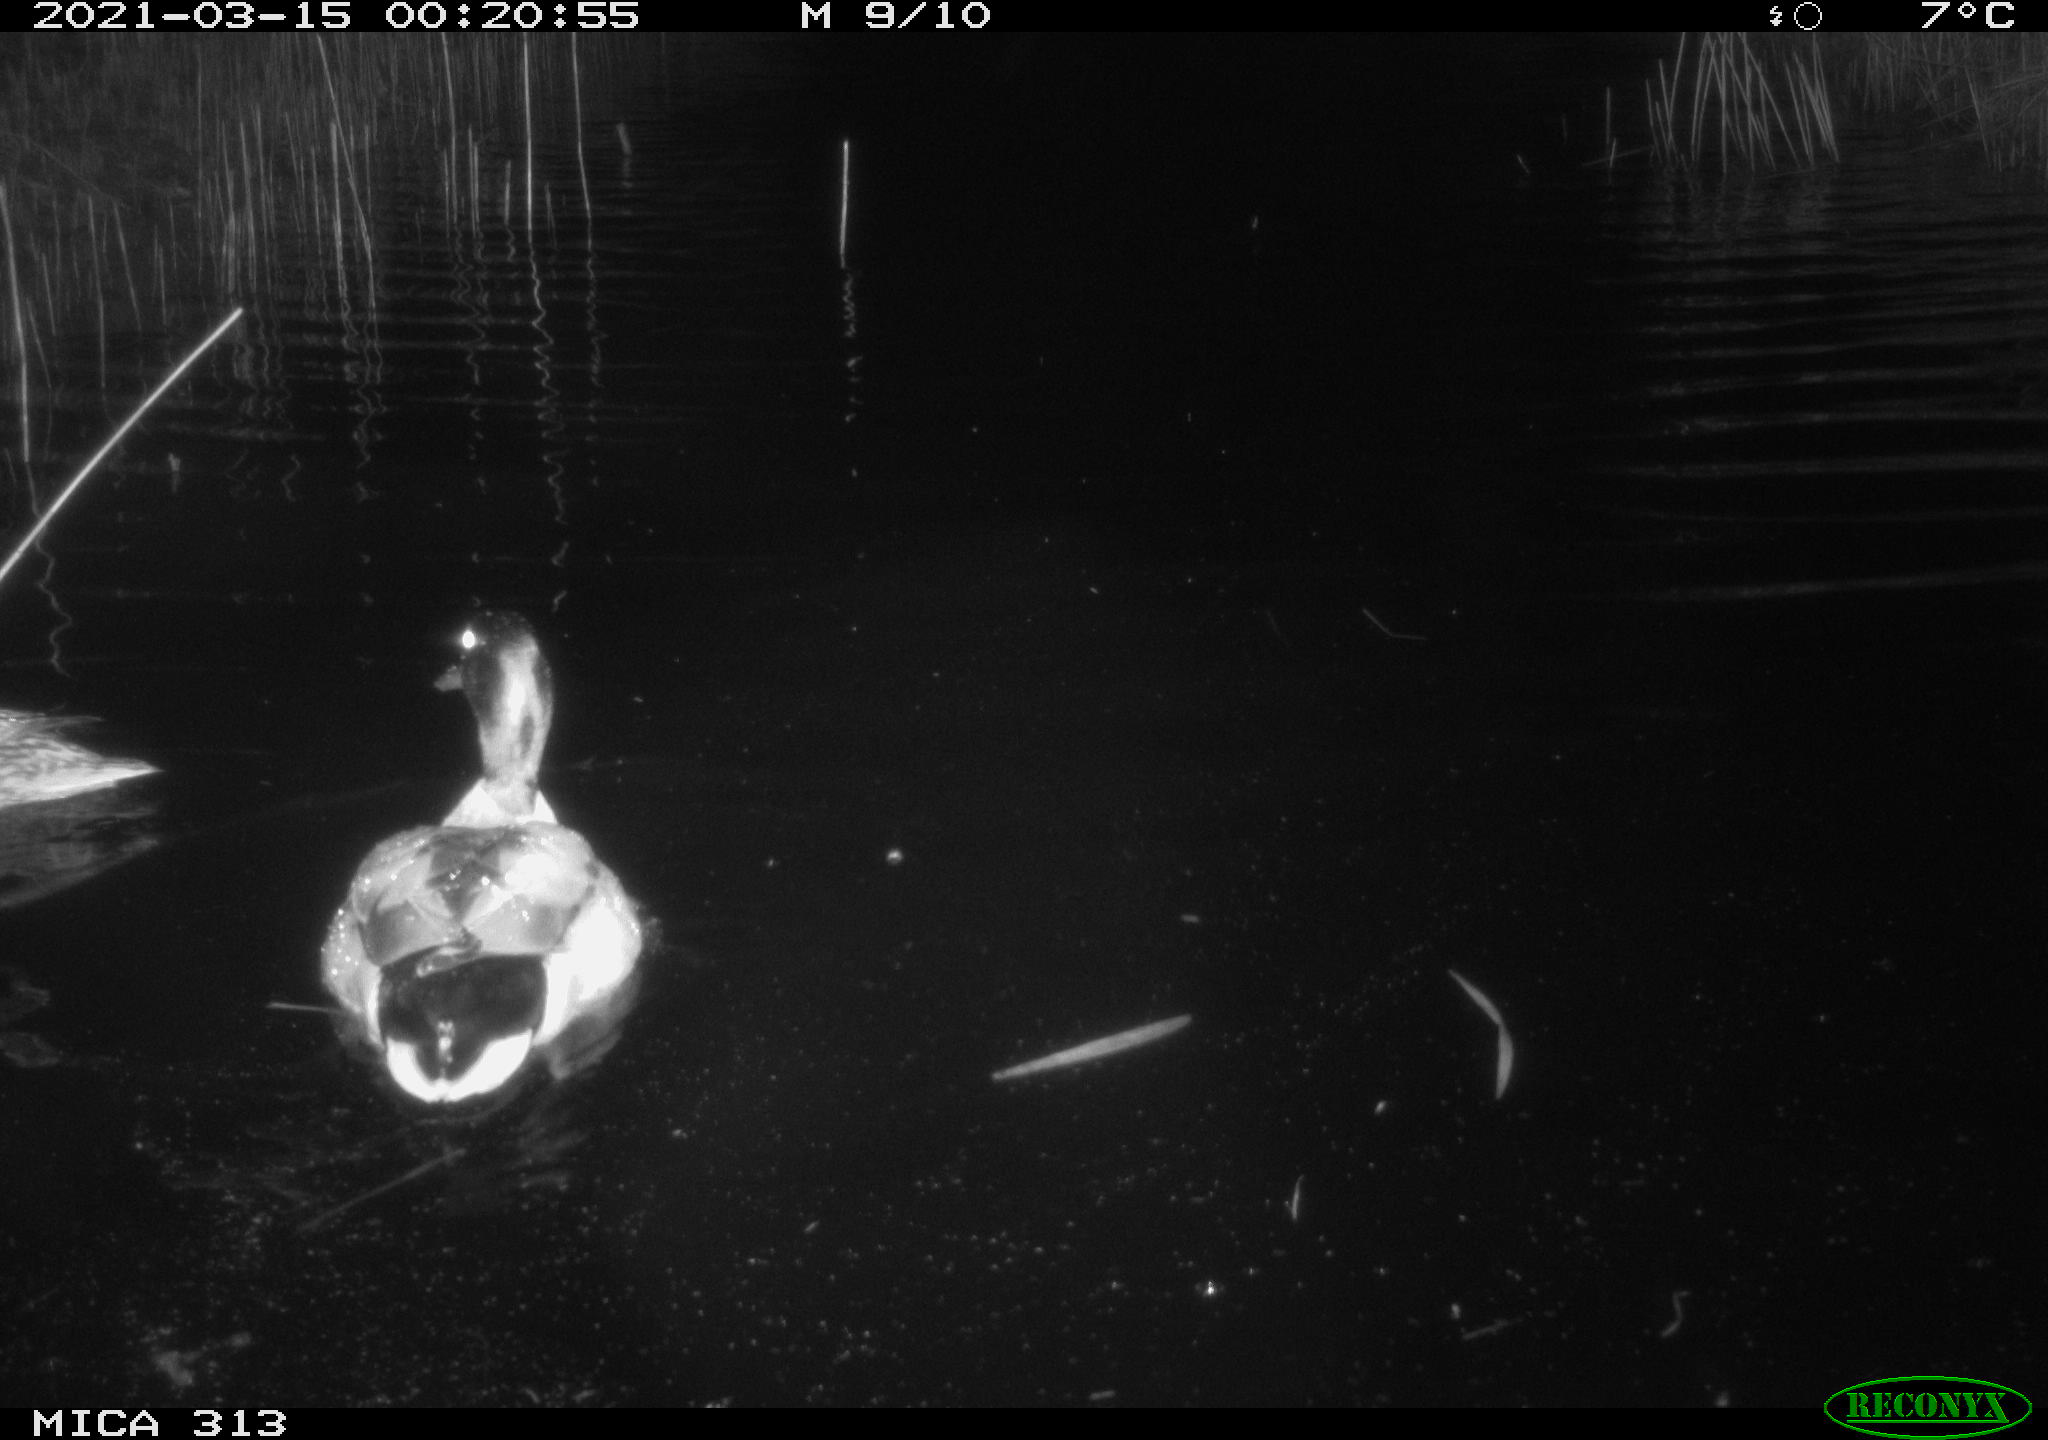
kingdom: Animalia
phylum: Chordata
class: Aves
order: Anseriformes
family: Anatidae
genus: Mareca
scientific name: Mareca strepera
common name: Gadwall
